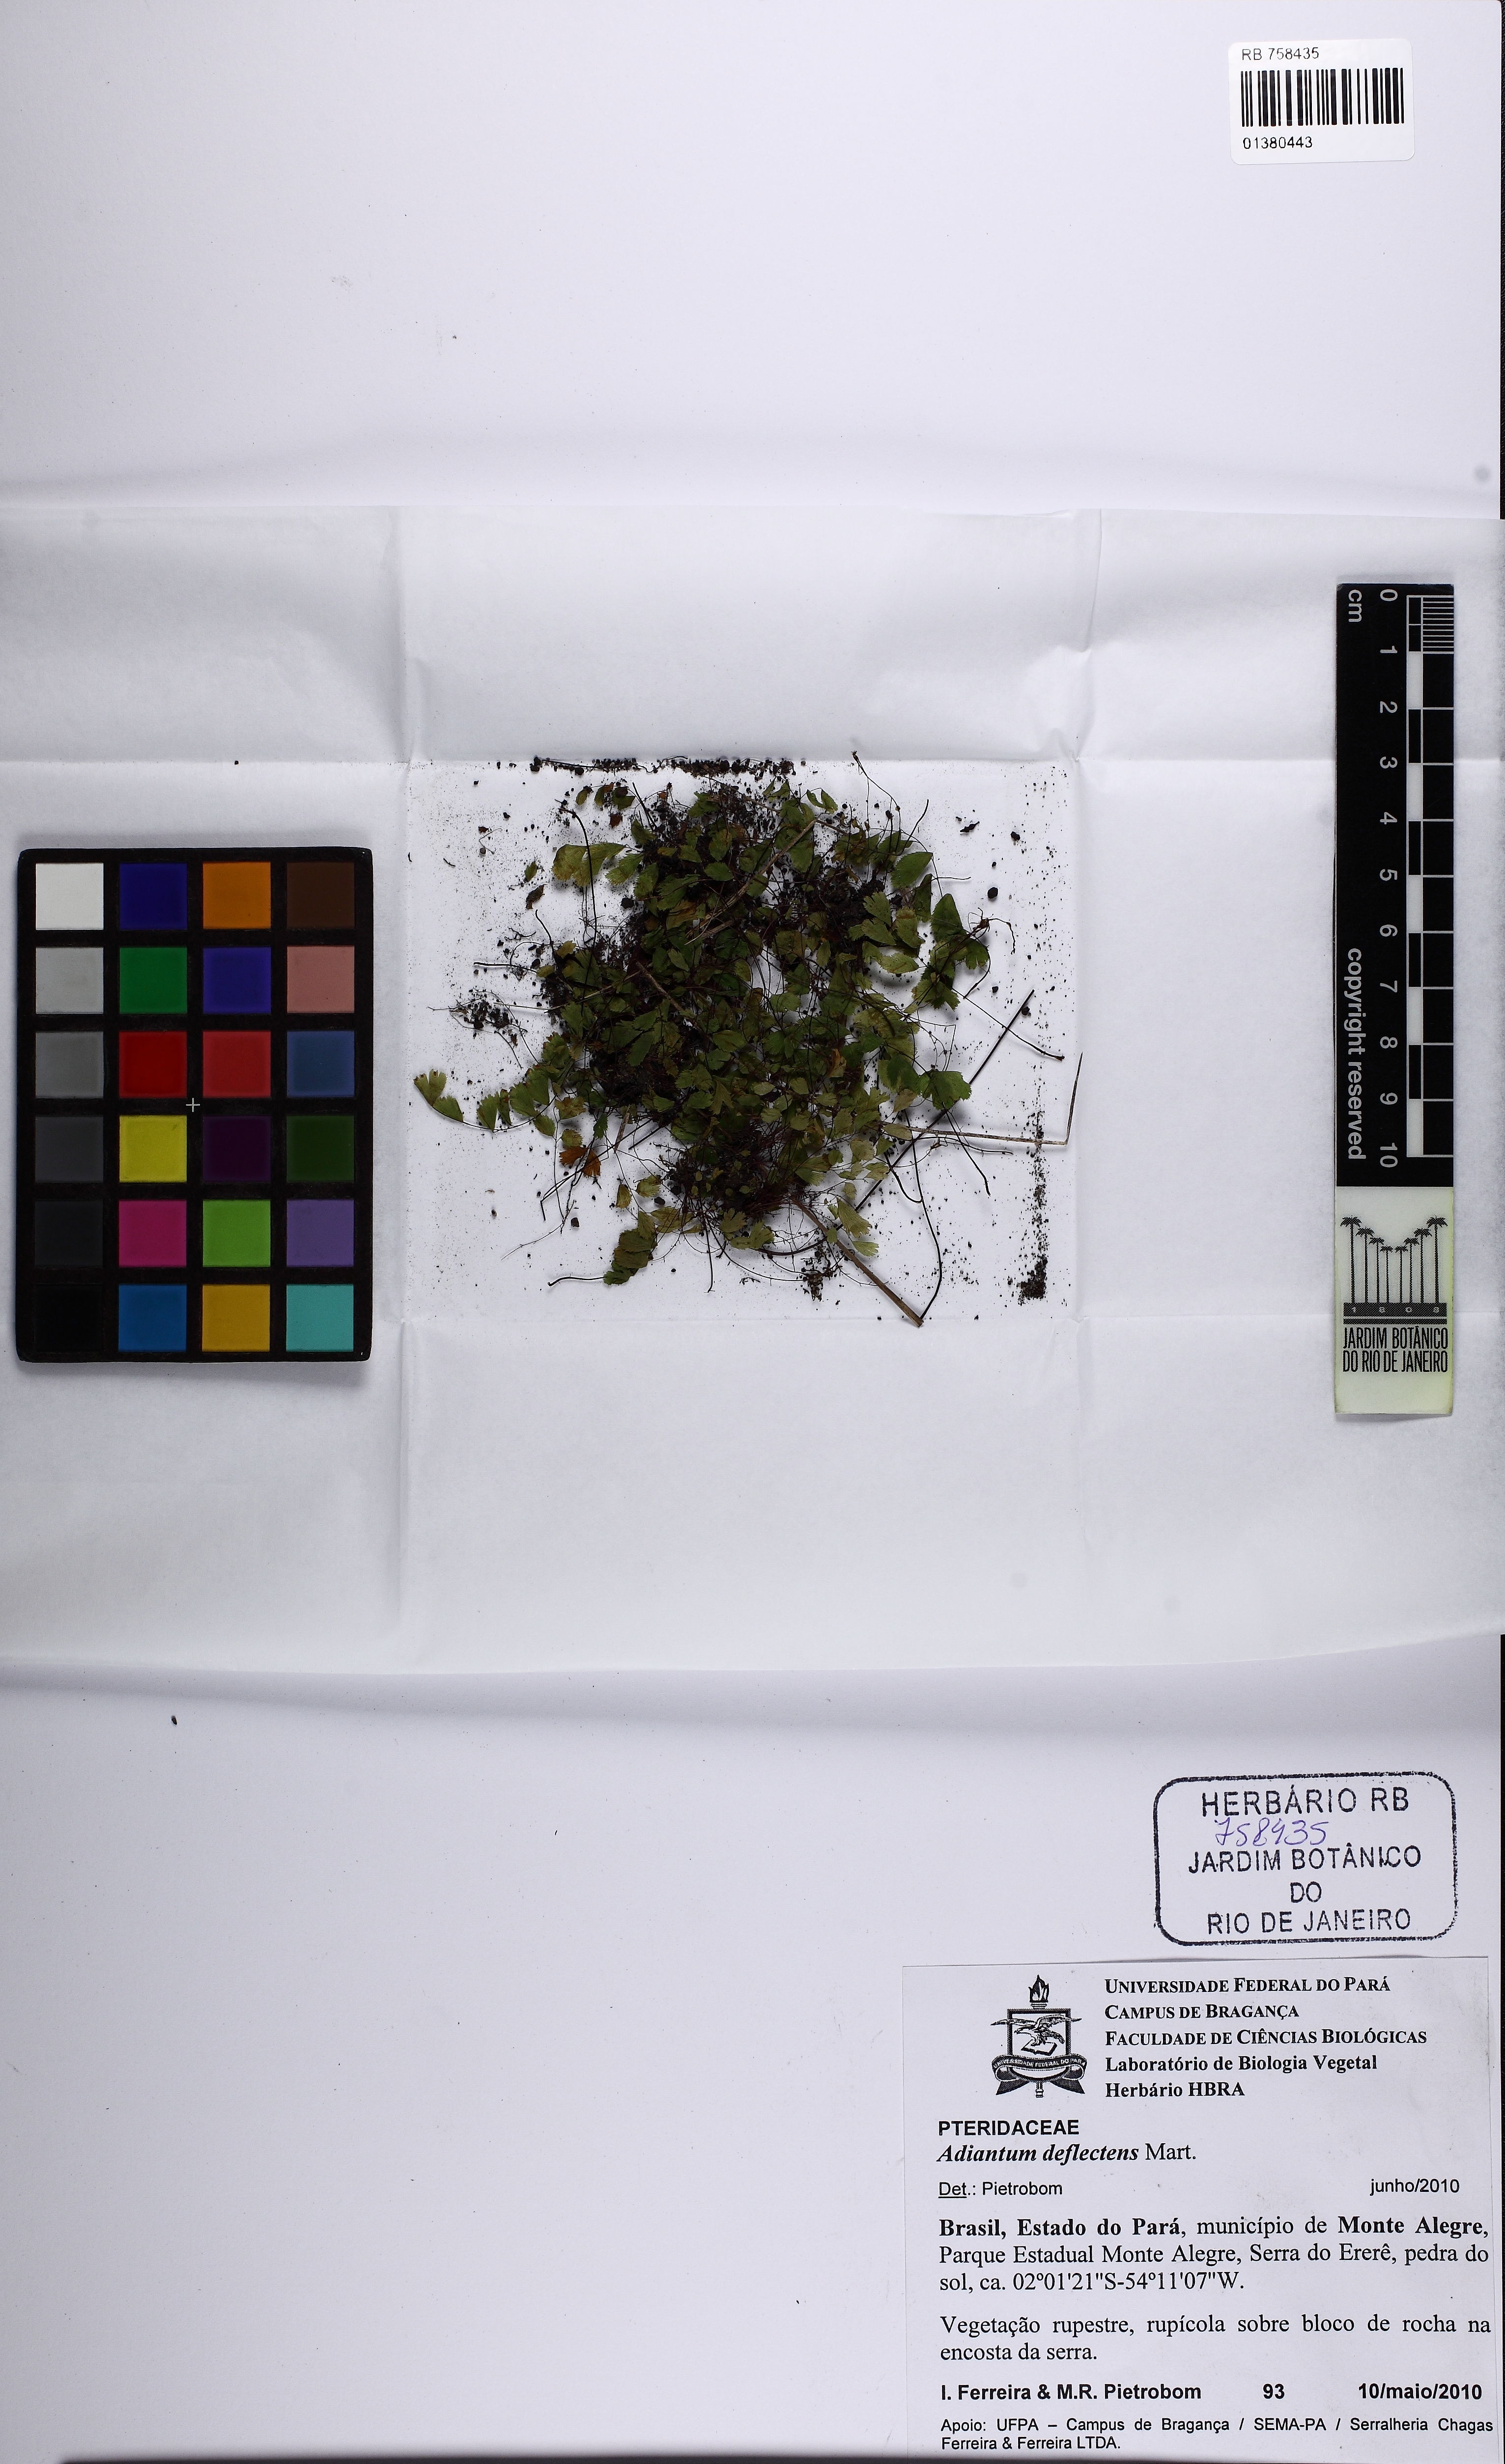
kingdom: Plantae
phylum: Tracheophyta
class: Polypodiopsida
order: Polypodiales
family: Pteridaceae
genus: Adiantum
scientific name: Adiantum deflectens
